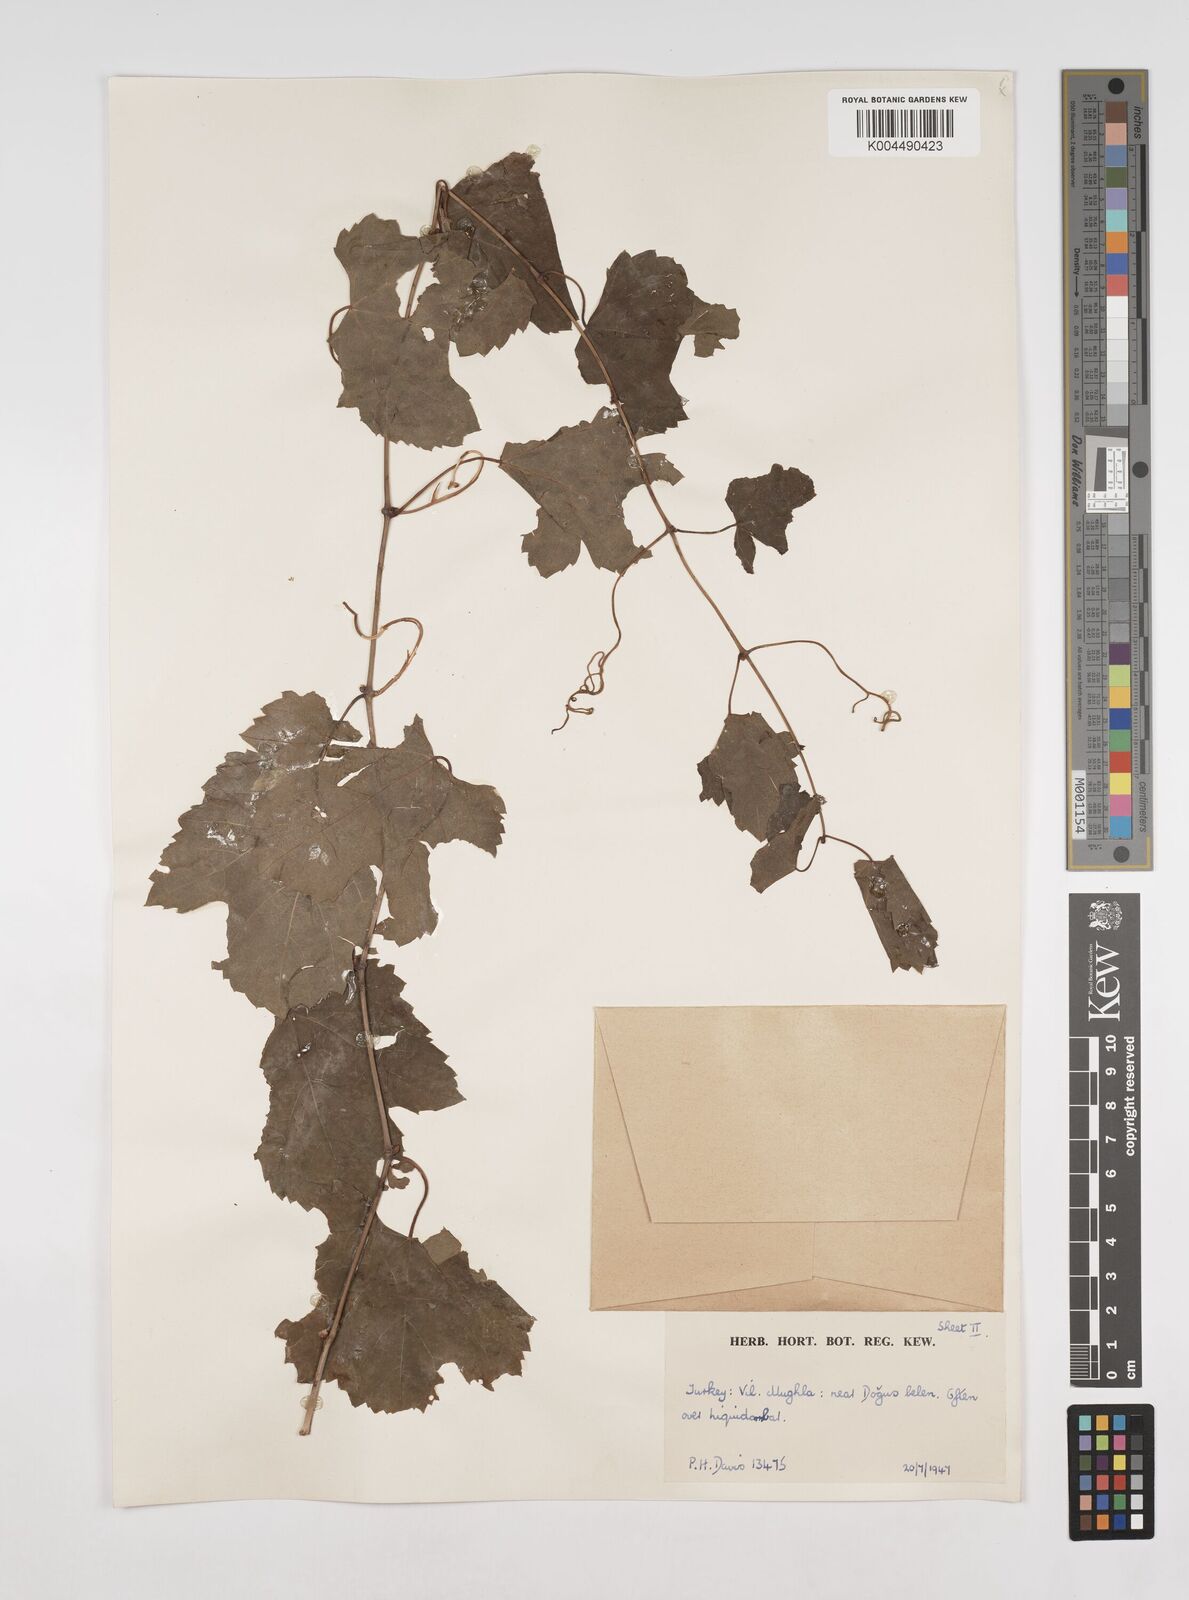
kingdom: Plantae
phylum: Tracheophyta
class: Magnoliopsida
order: Vitales
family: Vitaceae
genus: Vitis
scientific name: Vitis gmelinii
